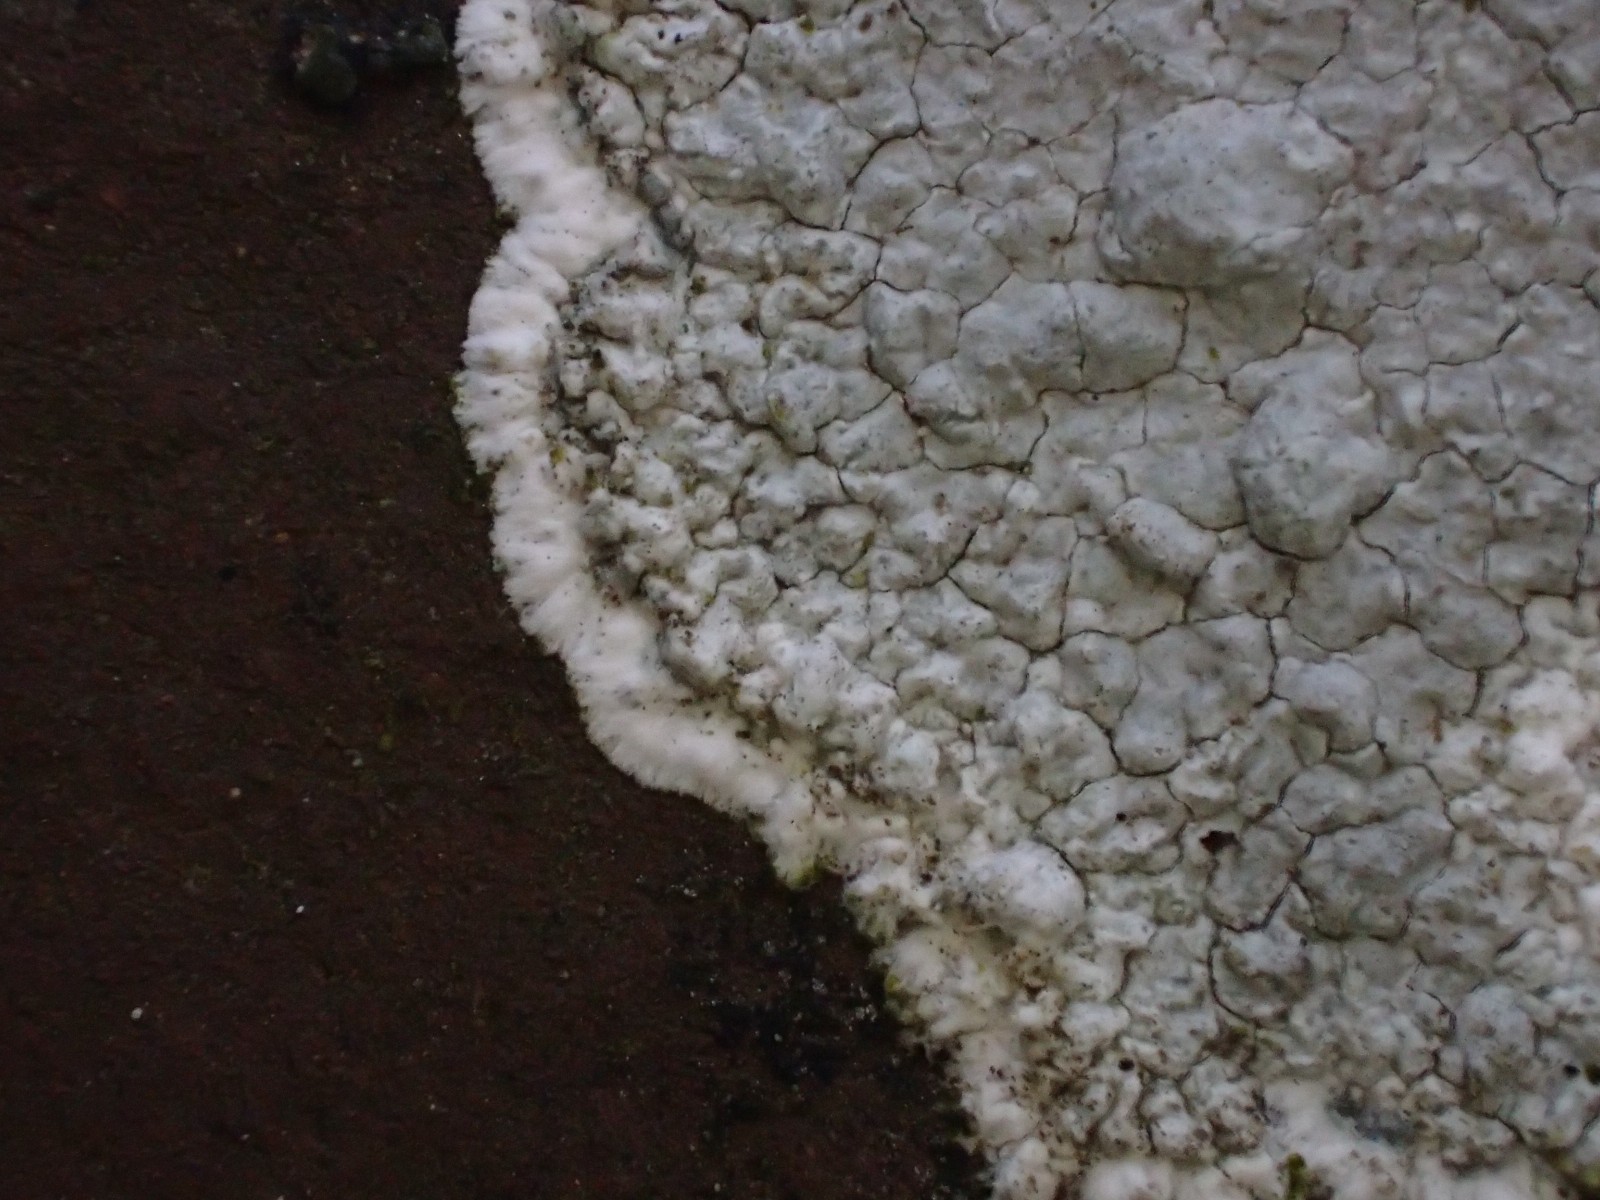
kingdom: Fungi
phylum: Ascomycota
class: Lecanoromycetes
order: Lecanorales
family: Haematommataceae
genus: Haematomma
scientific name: Haematomma ochroleucum
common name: gul trådkantlav
